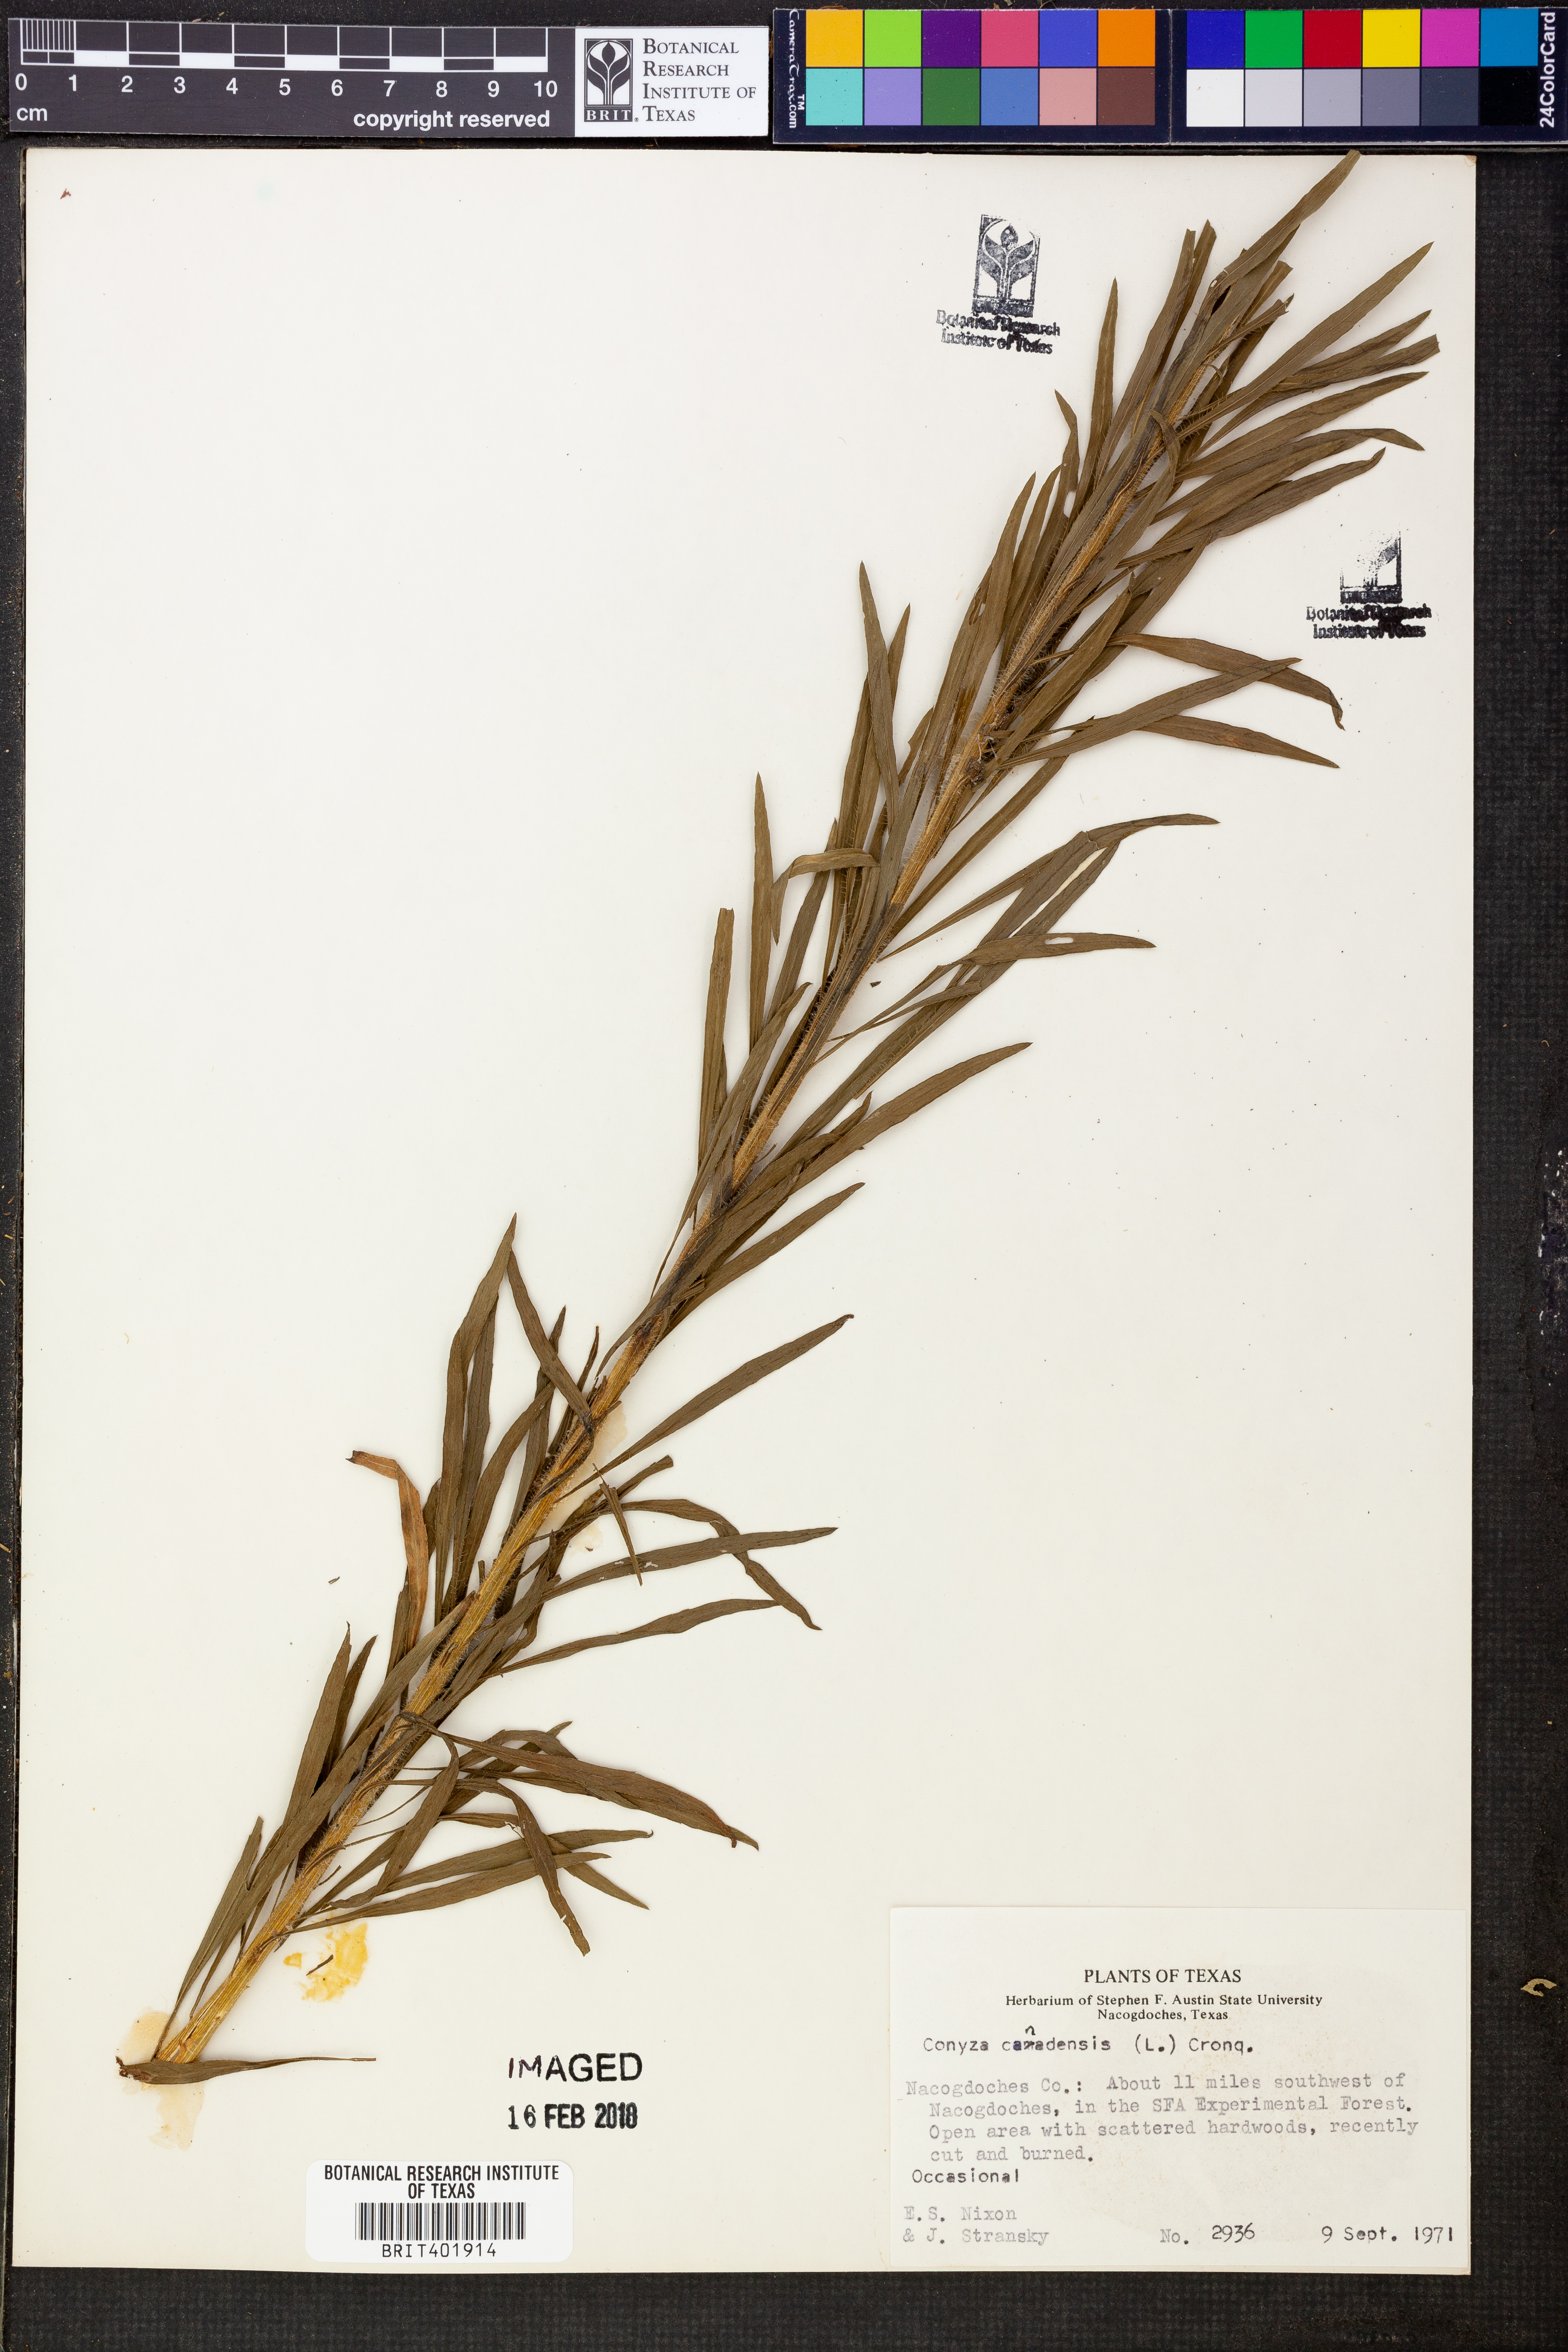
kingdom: Plantae
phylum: Tracheophyta
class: Magnoliopsida
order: Asterales
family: Asteraceae
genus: Erigeron
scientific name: Erigeron canadensis
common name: Canadian fleabane
